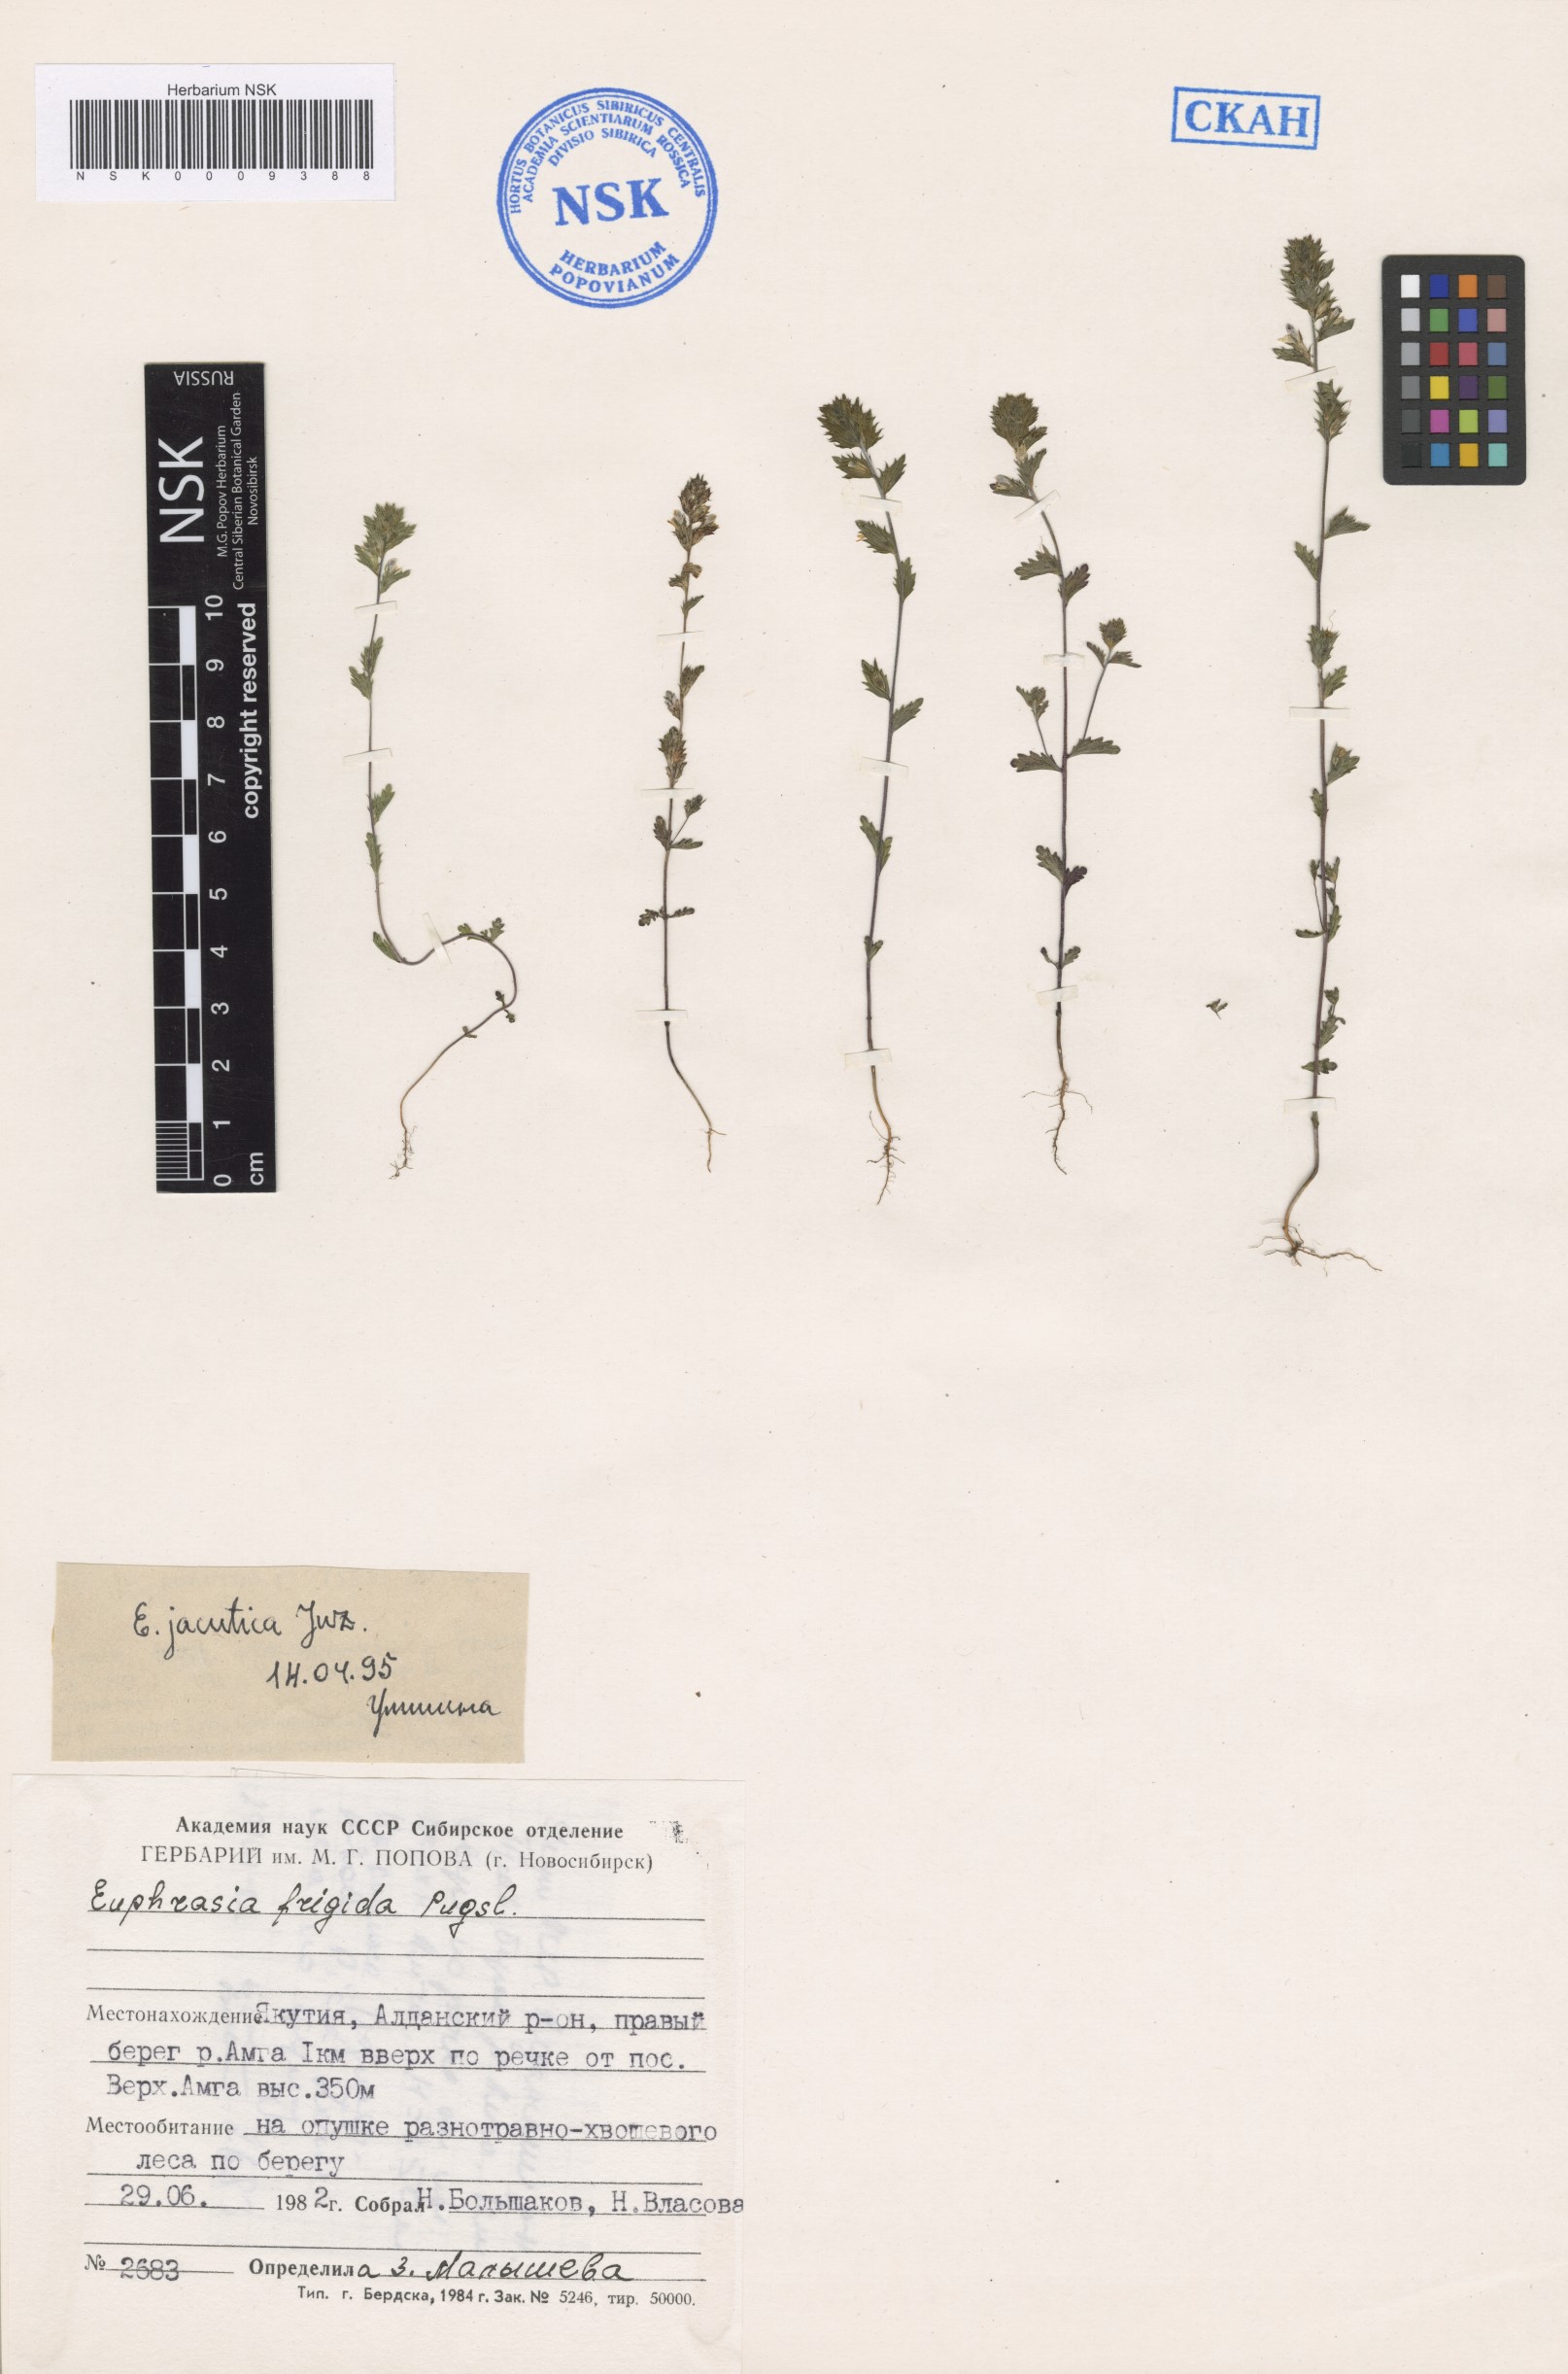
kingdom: Plantae
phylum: Tracheophyta
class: Magnoliopsida
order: Lamiales
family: Orobanchaceae
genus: Euphrasia
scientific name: Euphrasia jacutica
